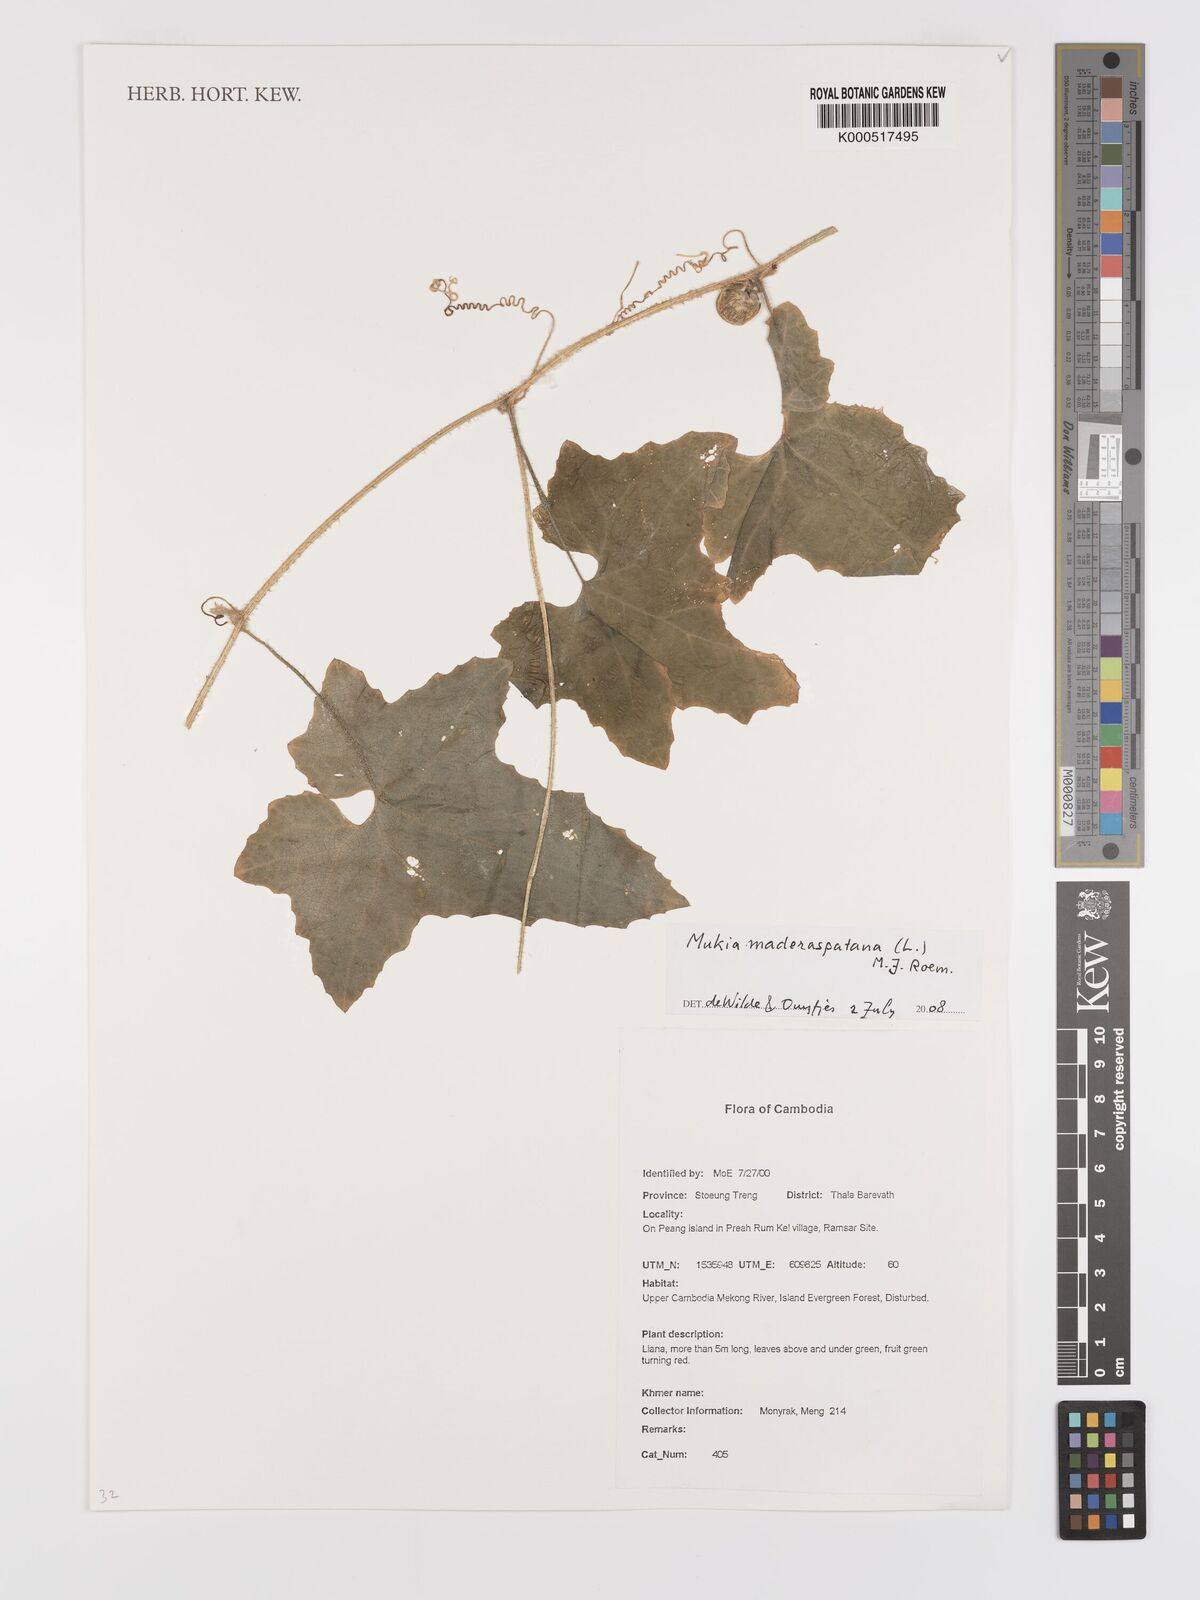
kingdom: Plantae
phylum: Tracheophyta
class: Magnoliopsida
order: Cucurbitales
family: Cucurbitaceae
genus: Cucumis
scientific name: Cucumis maderaspatanus
